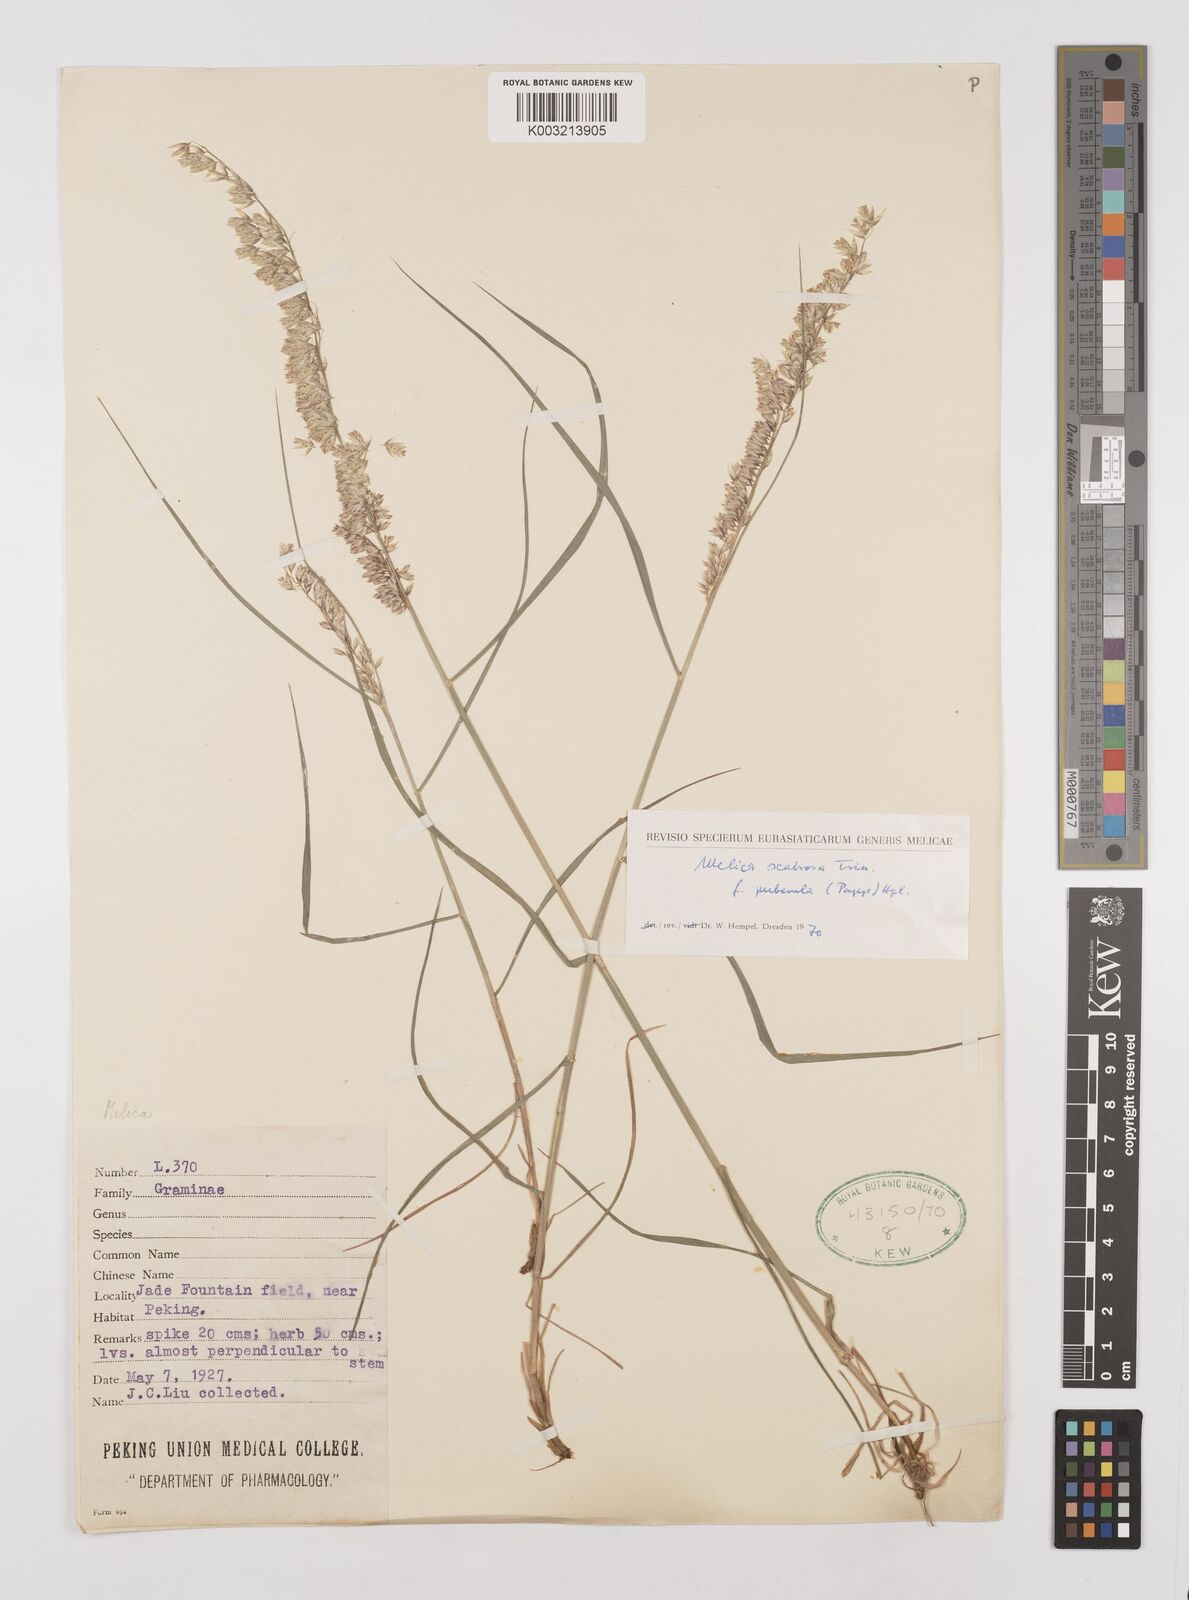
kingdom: Plantae
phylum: Tracheophyta
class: Liliopsida
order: Poales
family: Poaceae
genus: Melica
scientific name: Melica scabrosa
